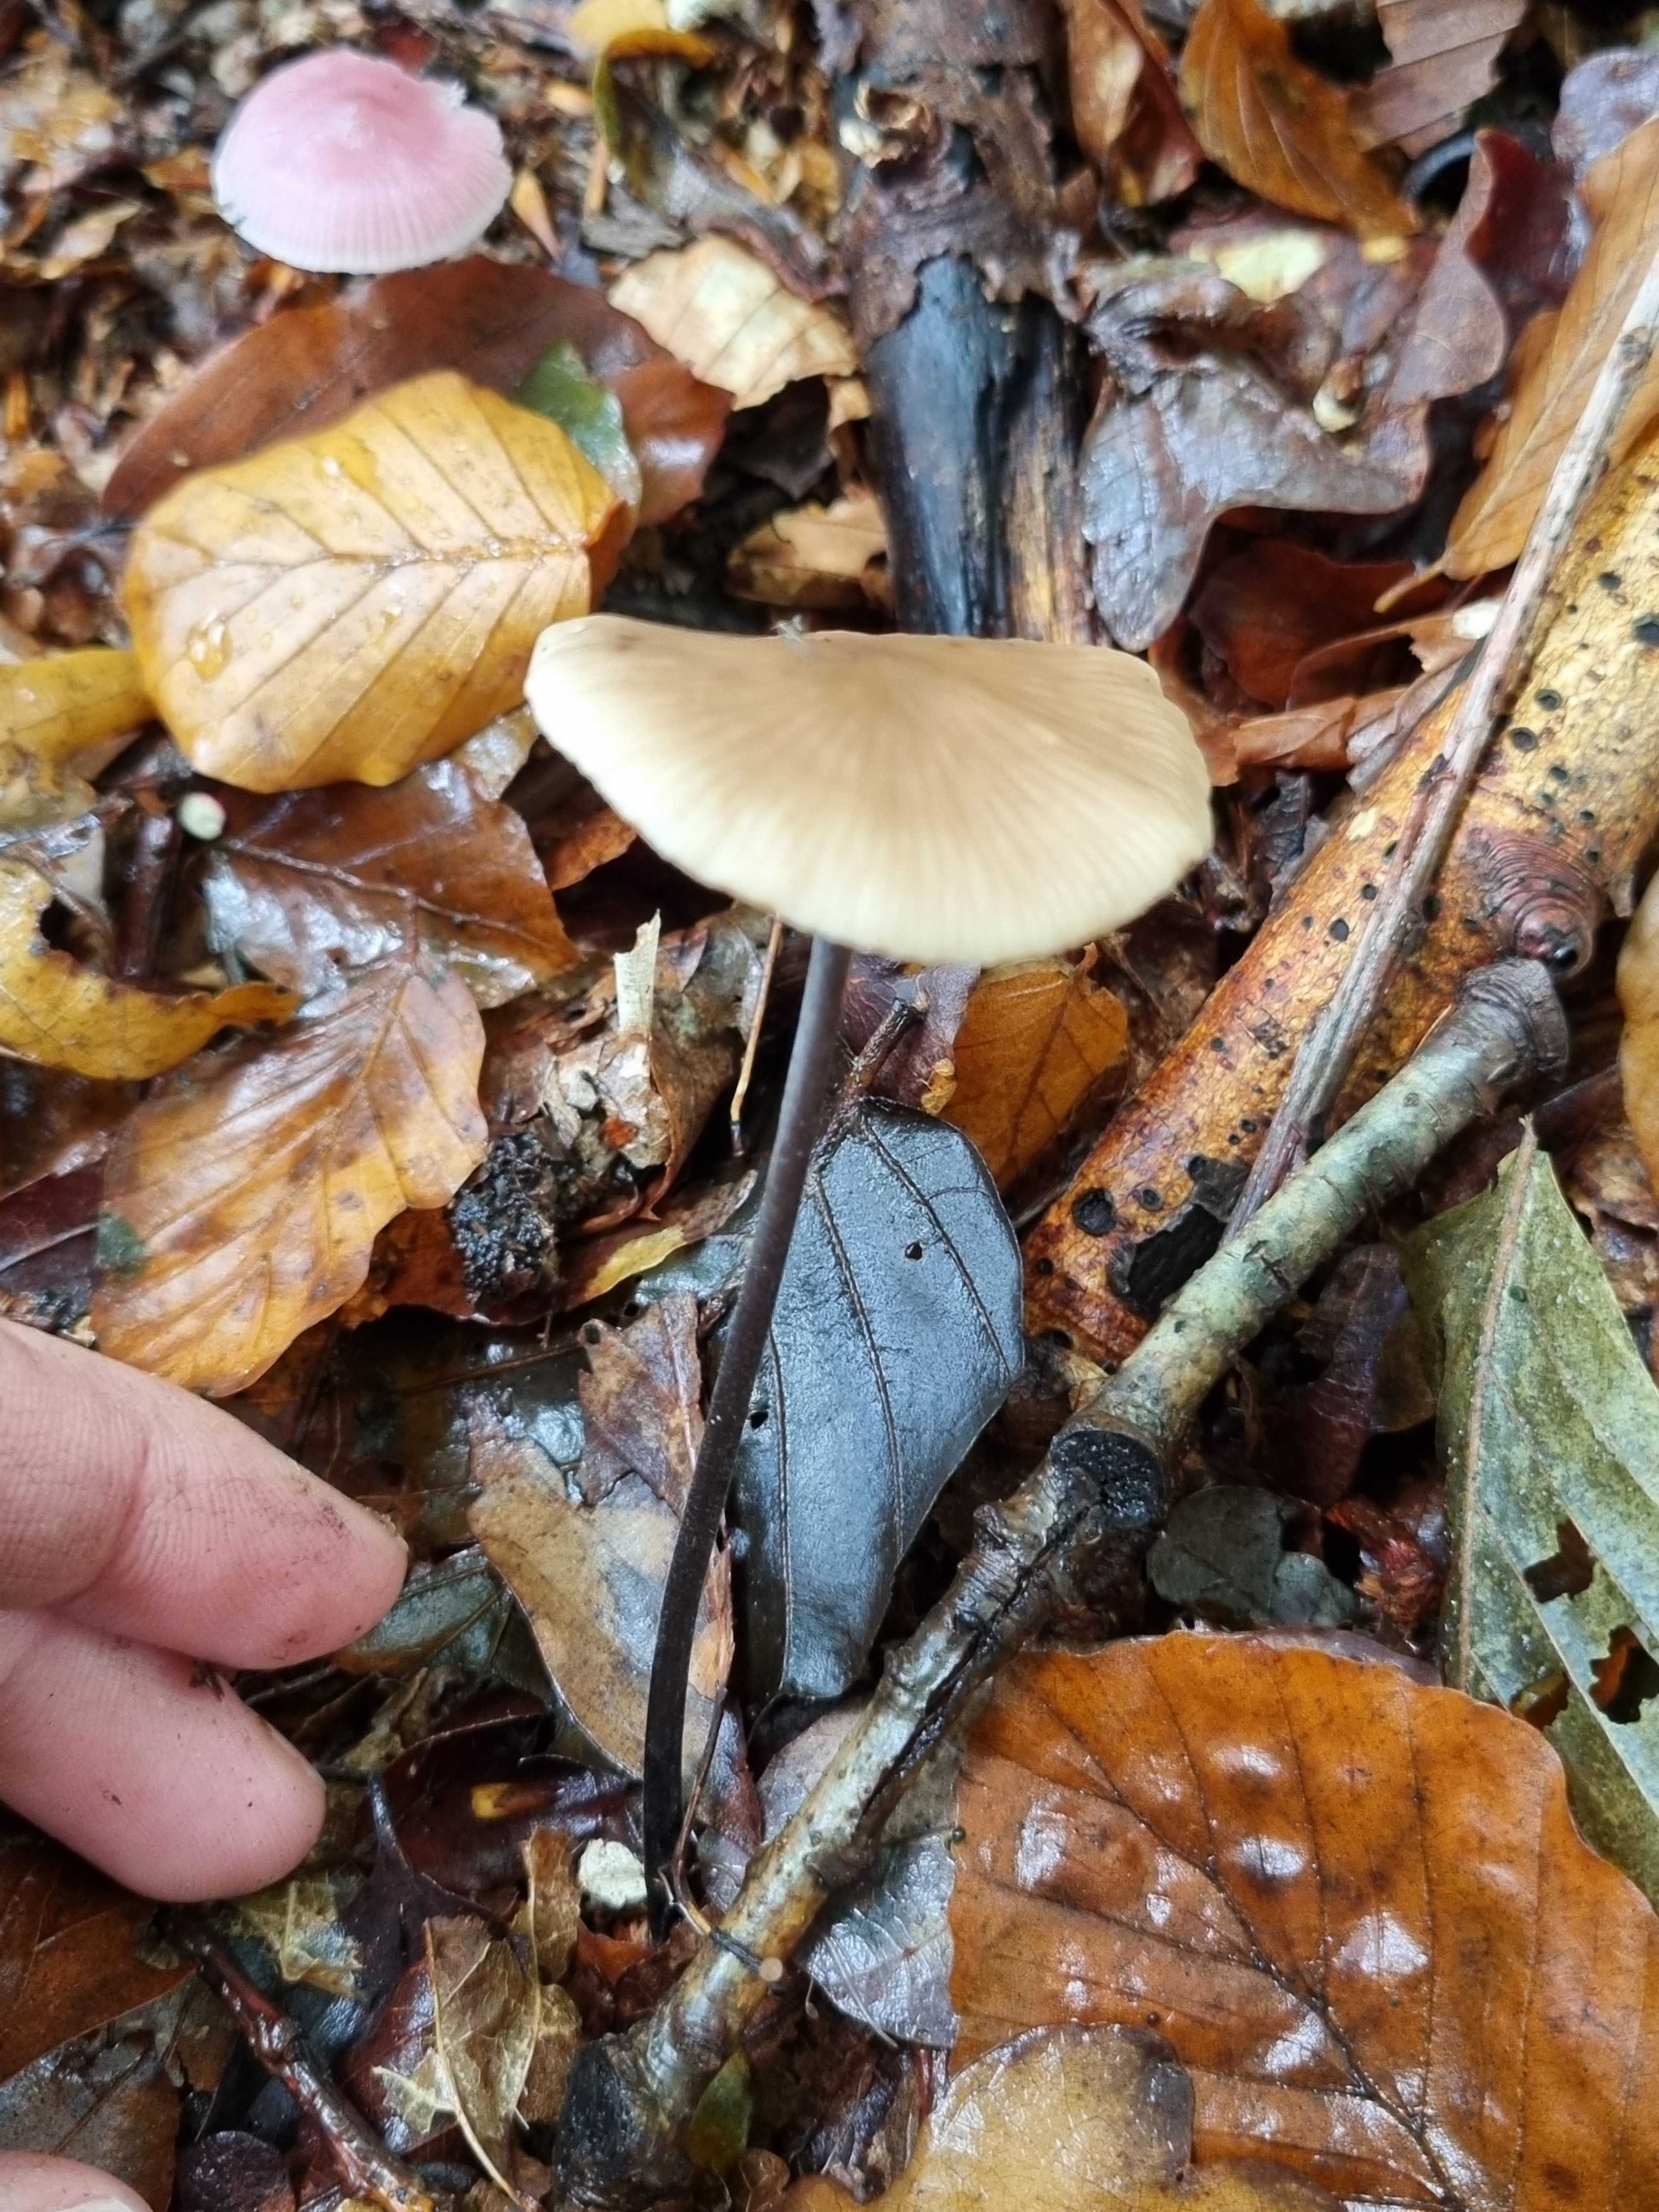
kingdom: Fungi
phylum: Basidiomycota
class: Agaricomycetes
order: Agaricales
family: Omphalotaceae
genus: Mycetinis
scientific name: Mycetinis alliaceus
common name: stor løghat
